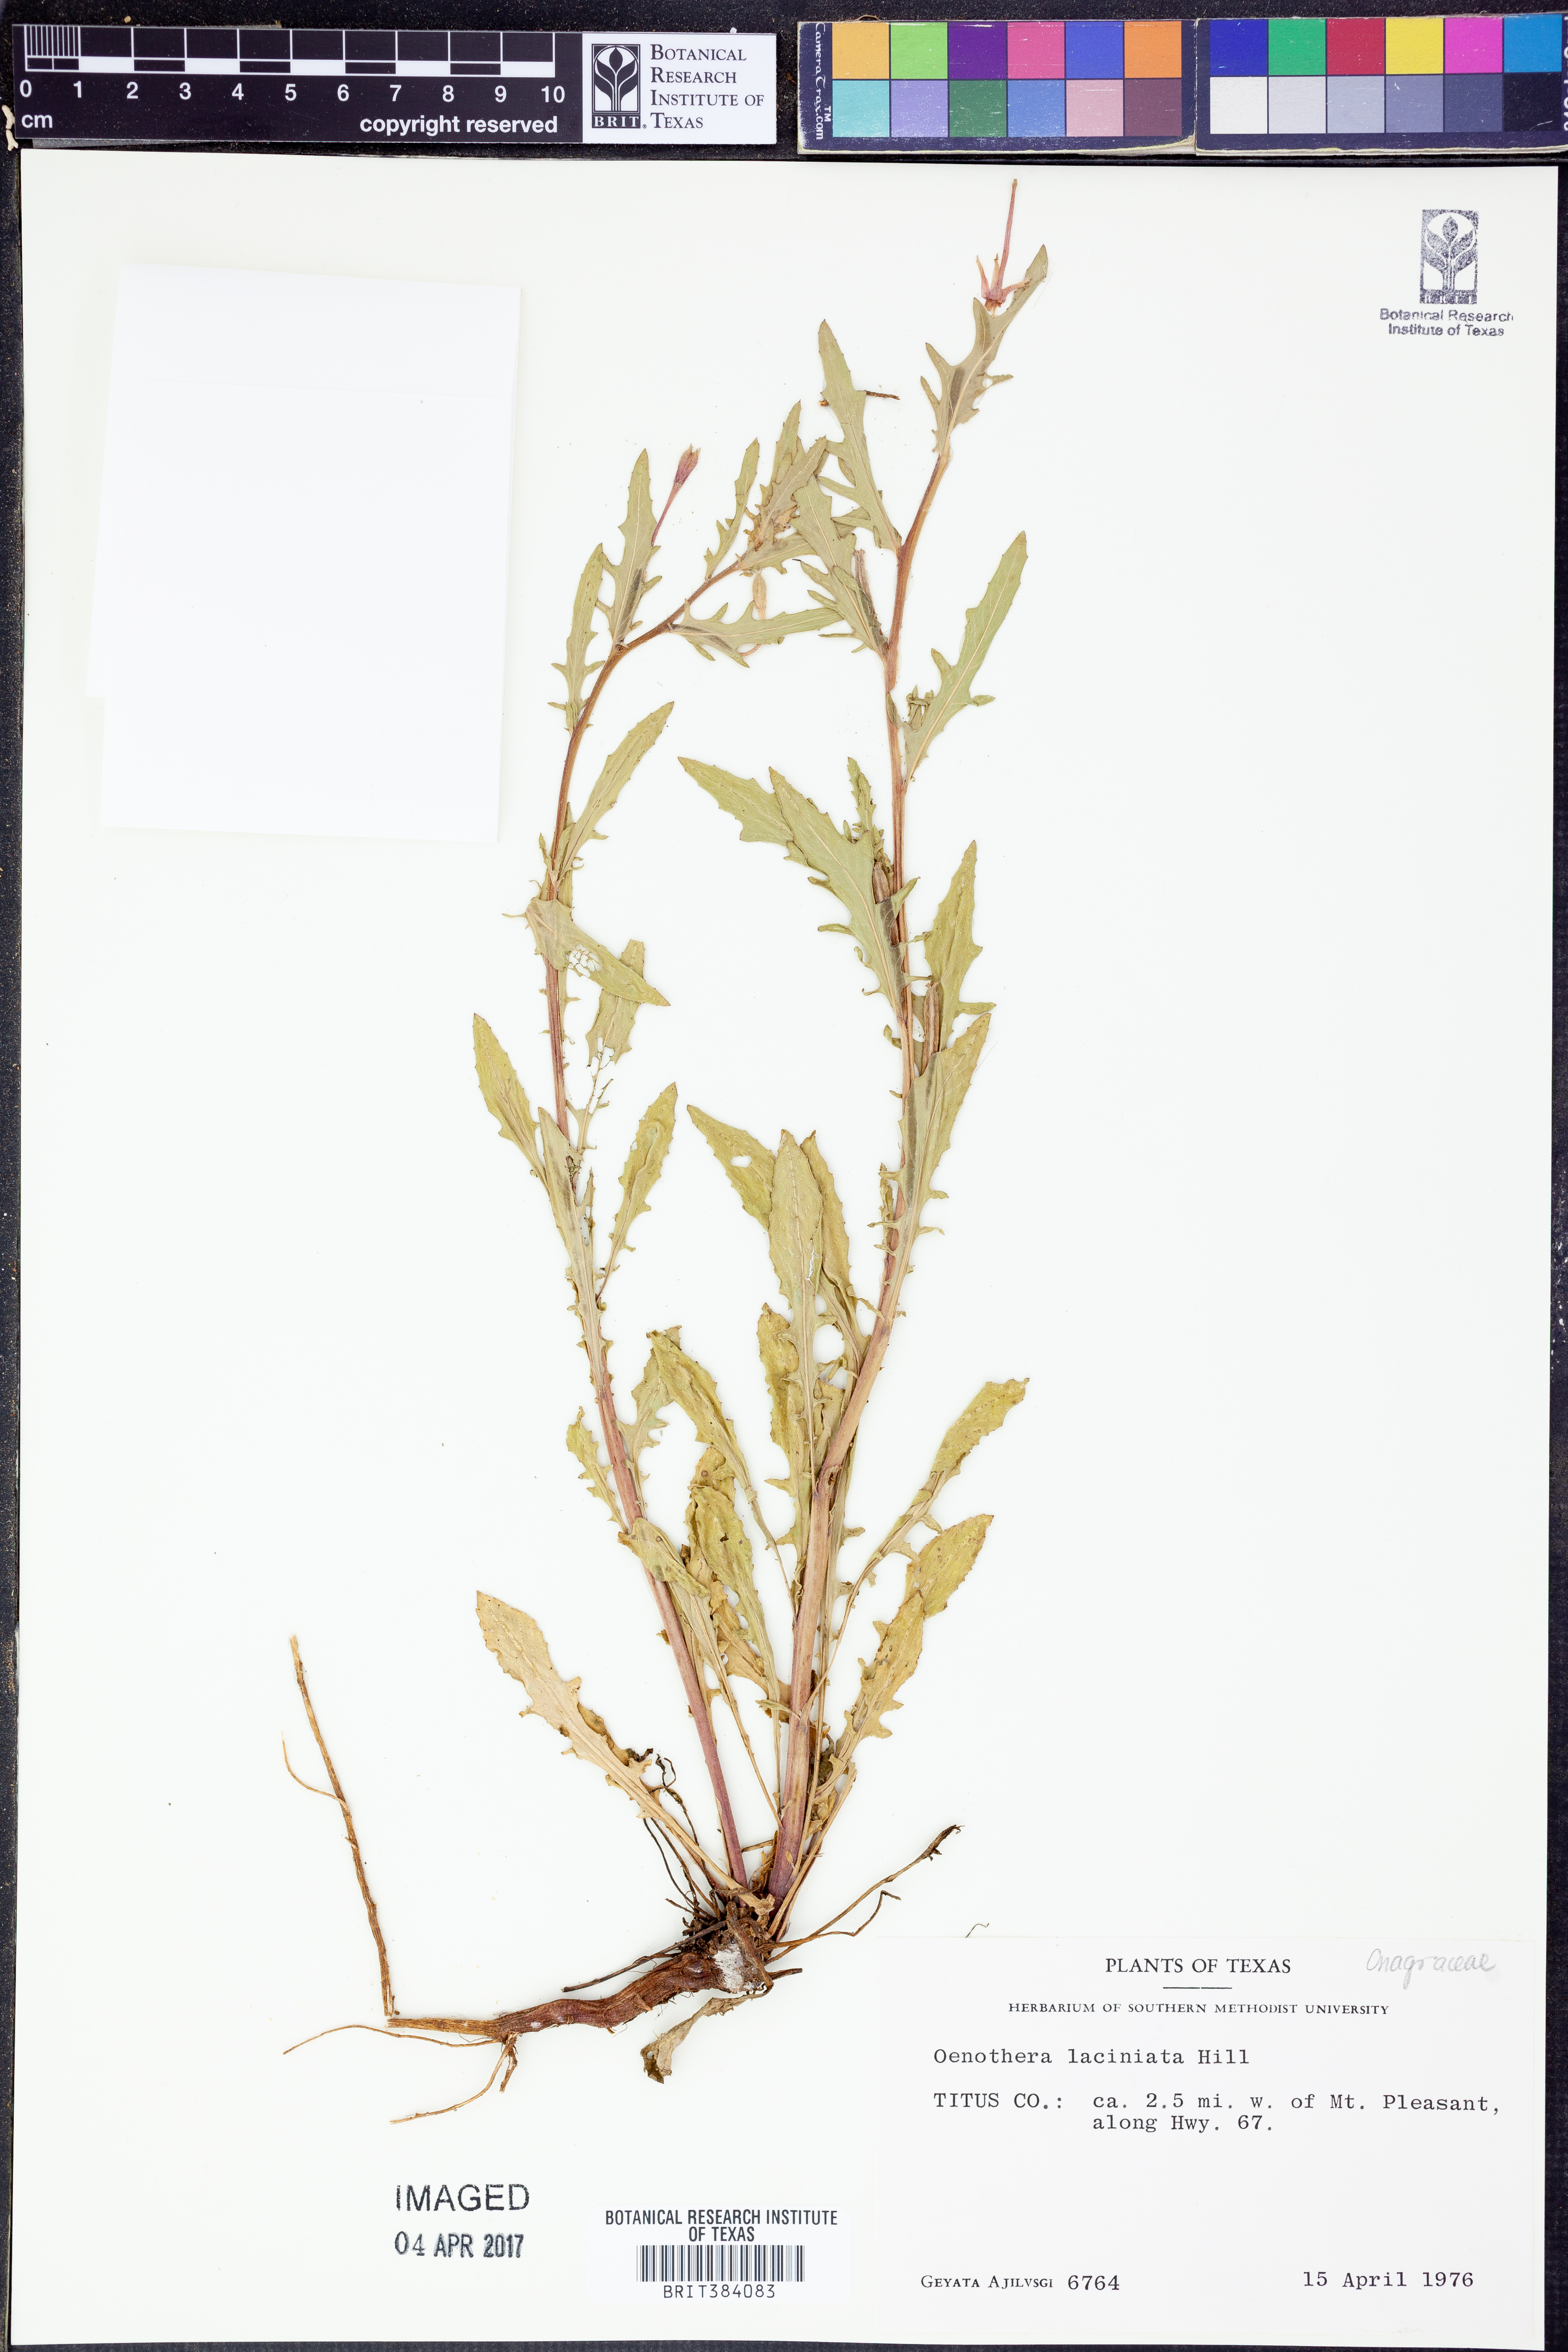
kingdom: Plantae
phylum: Tracheophyta
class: Magnoliopsida
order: Myrtales
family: Onagraceae
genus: Oenothera
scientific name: Oenothera laciniata
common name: Cut-leaved evening-primrose
